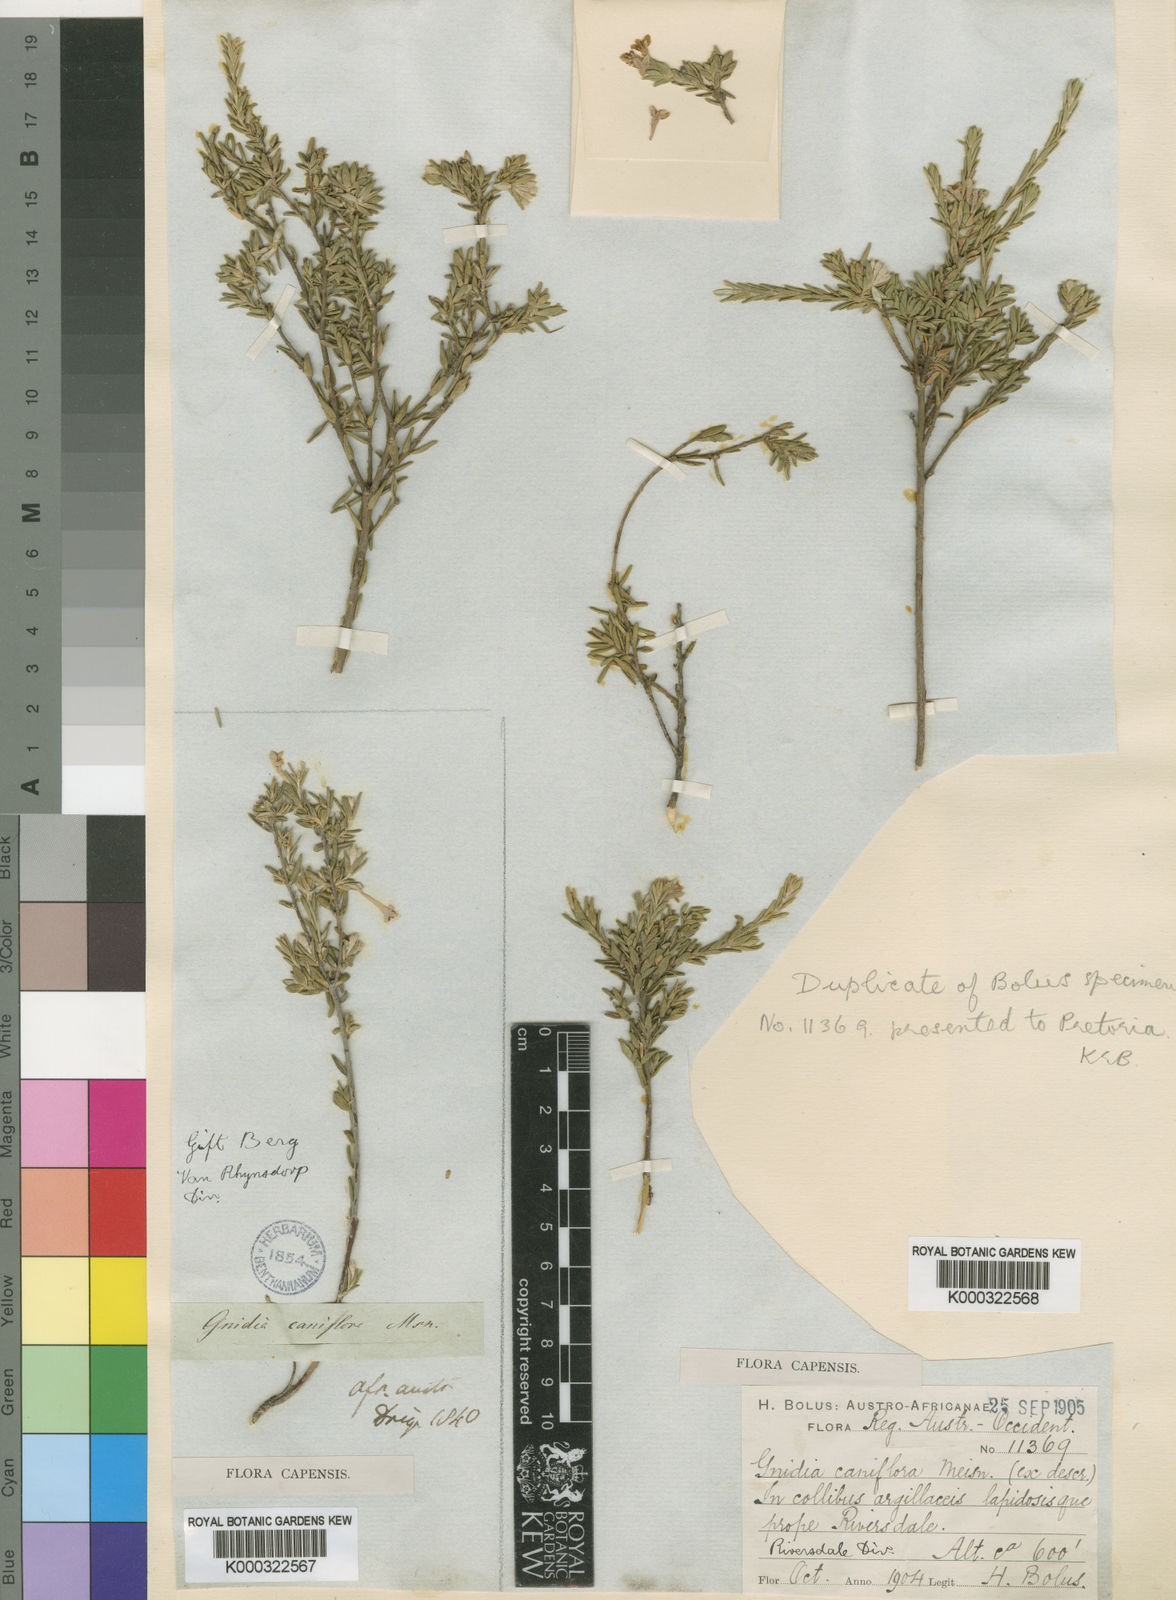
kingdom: Plantae
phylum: Tracheophyta
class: Magnoliopsida
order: Malvales
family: Thymelaeaceae
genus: Gnidia
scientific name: Gnidia caniflora
